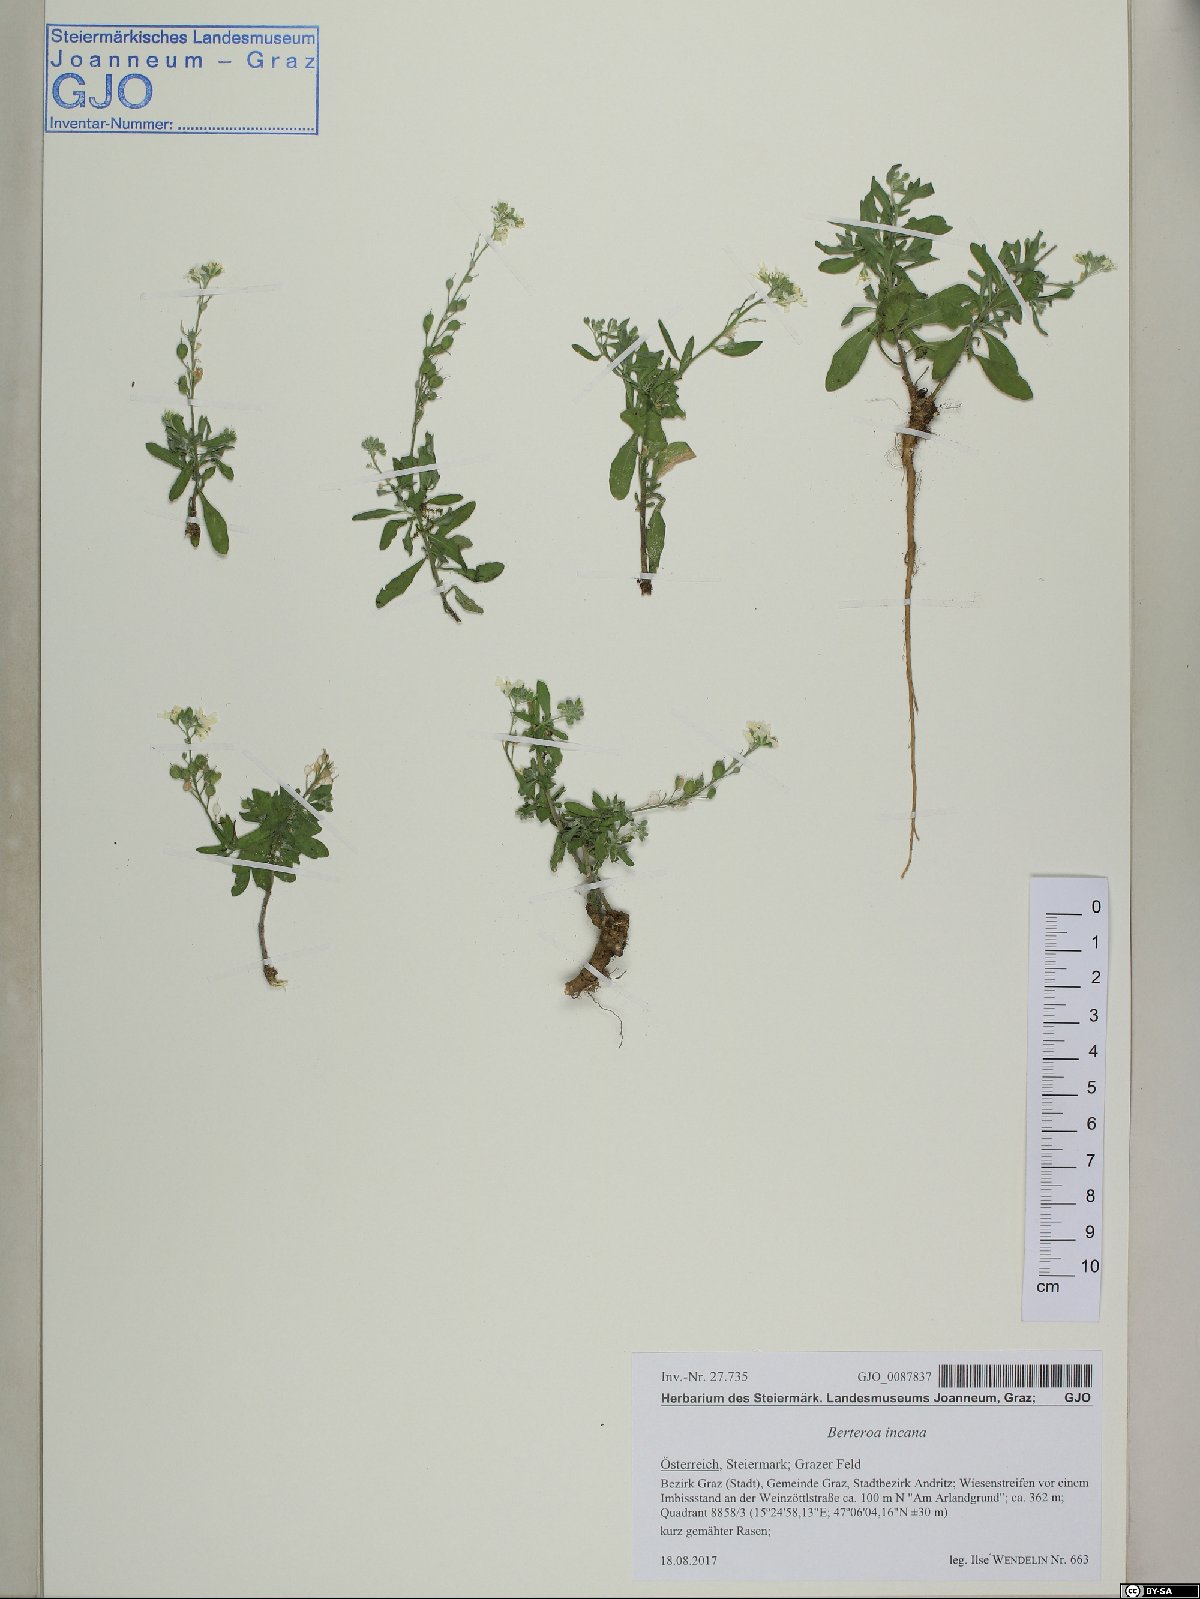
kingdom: Plantae
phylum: Tracheophyta
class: Magnoliopsida
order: Brassicales
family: Brassicaceae
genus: Berteroa
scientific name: Berteroa incana
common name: Hoary alison
